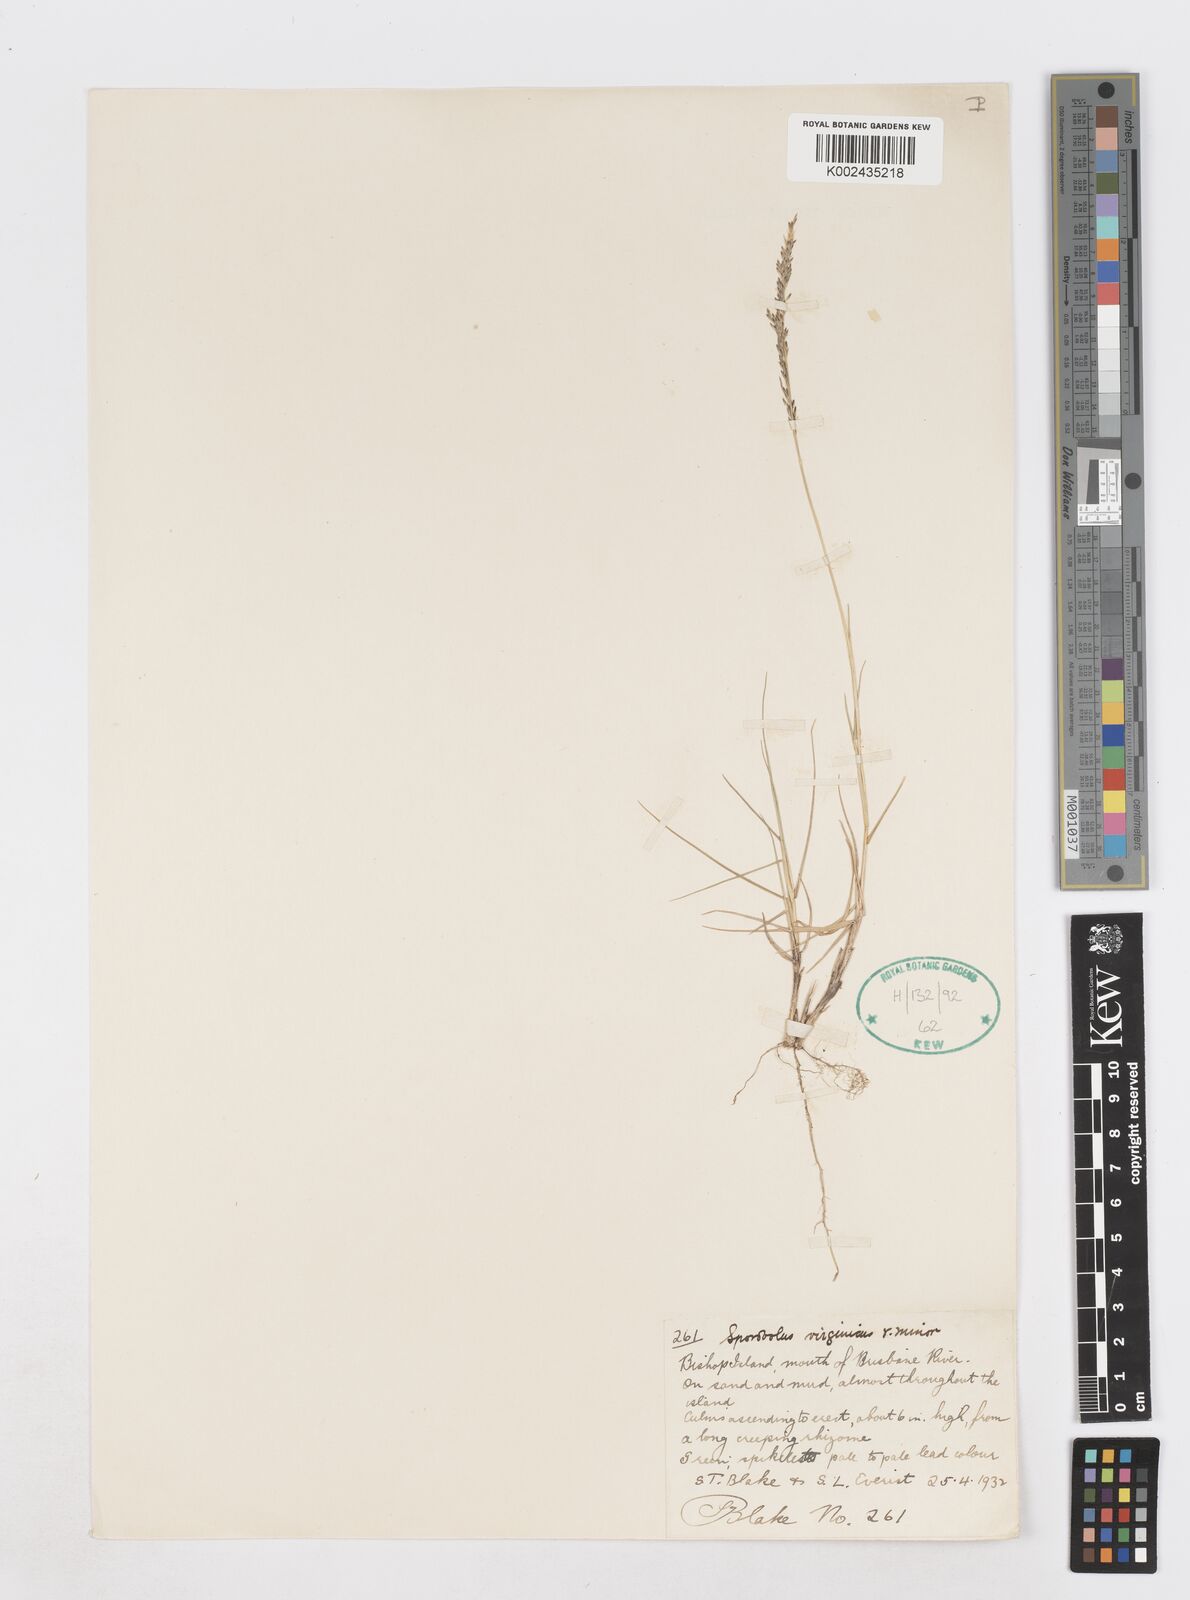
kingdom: Plantae
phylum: Tracheophyta
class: Liliopsida
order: Poales
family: Poaceae
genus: Sporobolus
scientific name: Sporobolus virginicus
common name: Beach dropseed
